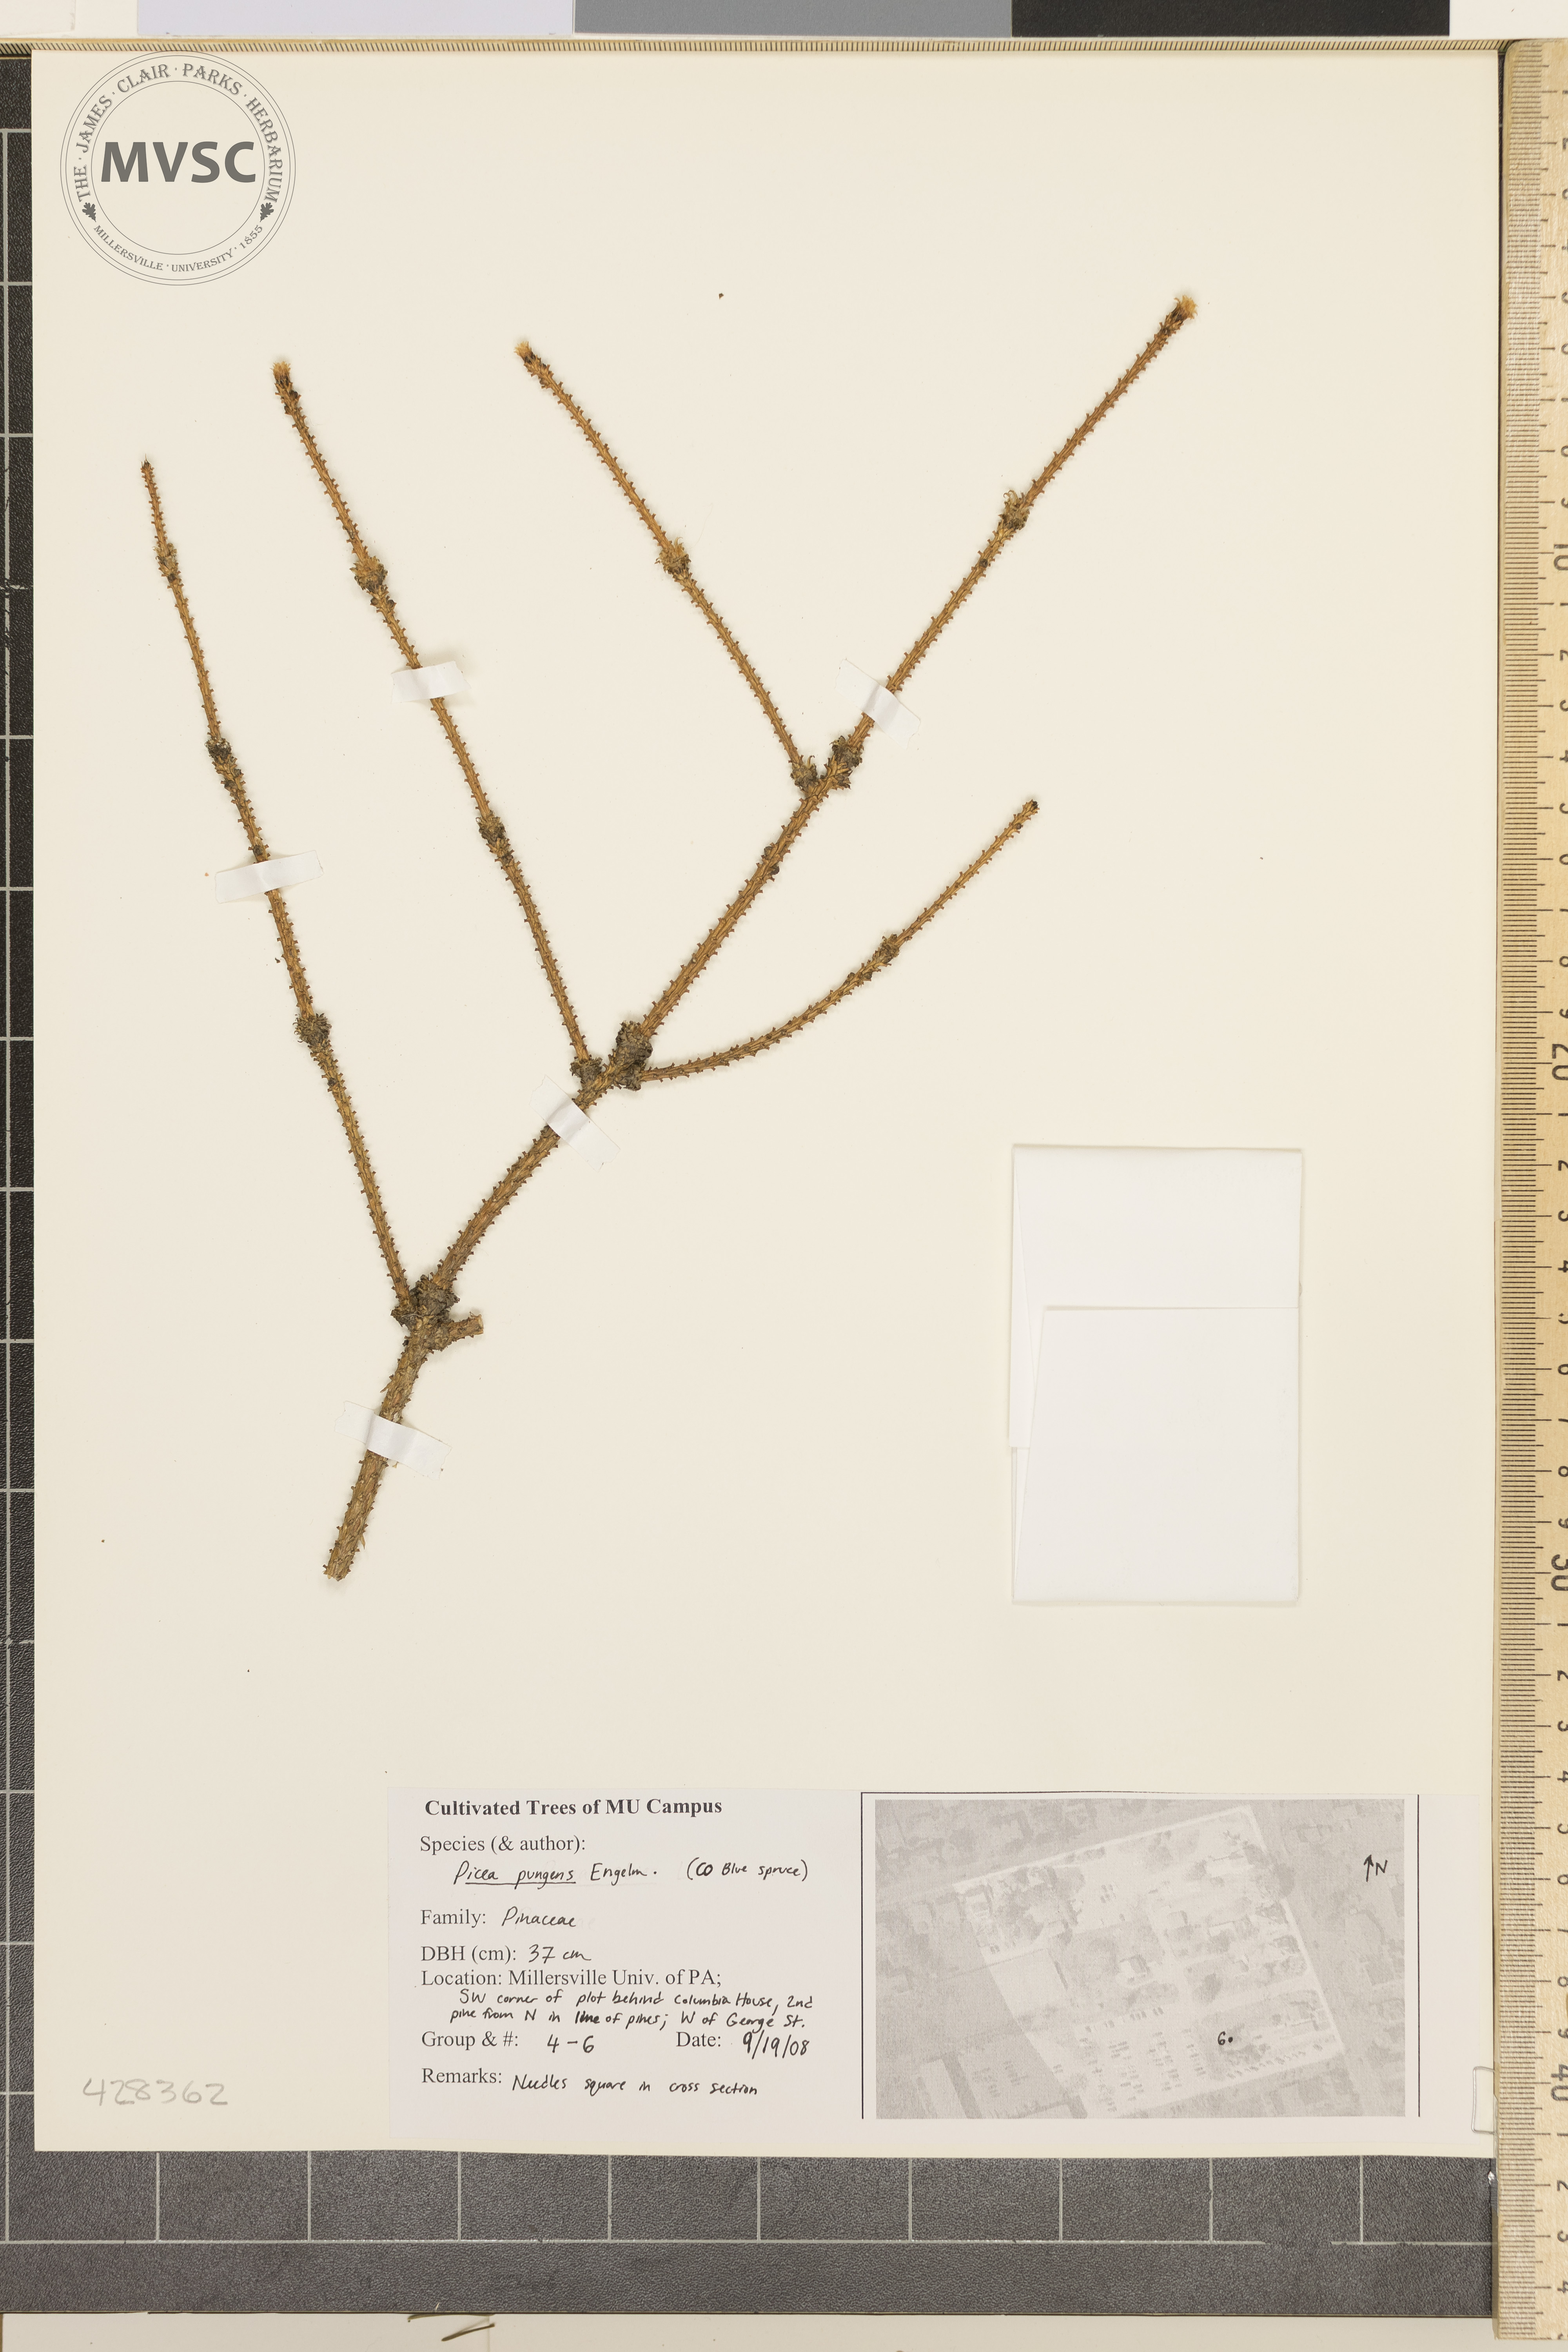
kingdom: Plantae
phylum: Tracheophyta
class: Pinopsida
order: Pinales
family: Pinaceae
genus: Picea
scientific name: Picea pungens
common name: Colorado Blue Spruce
